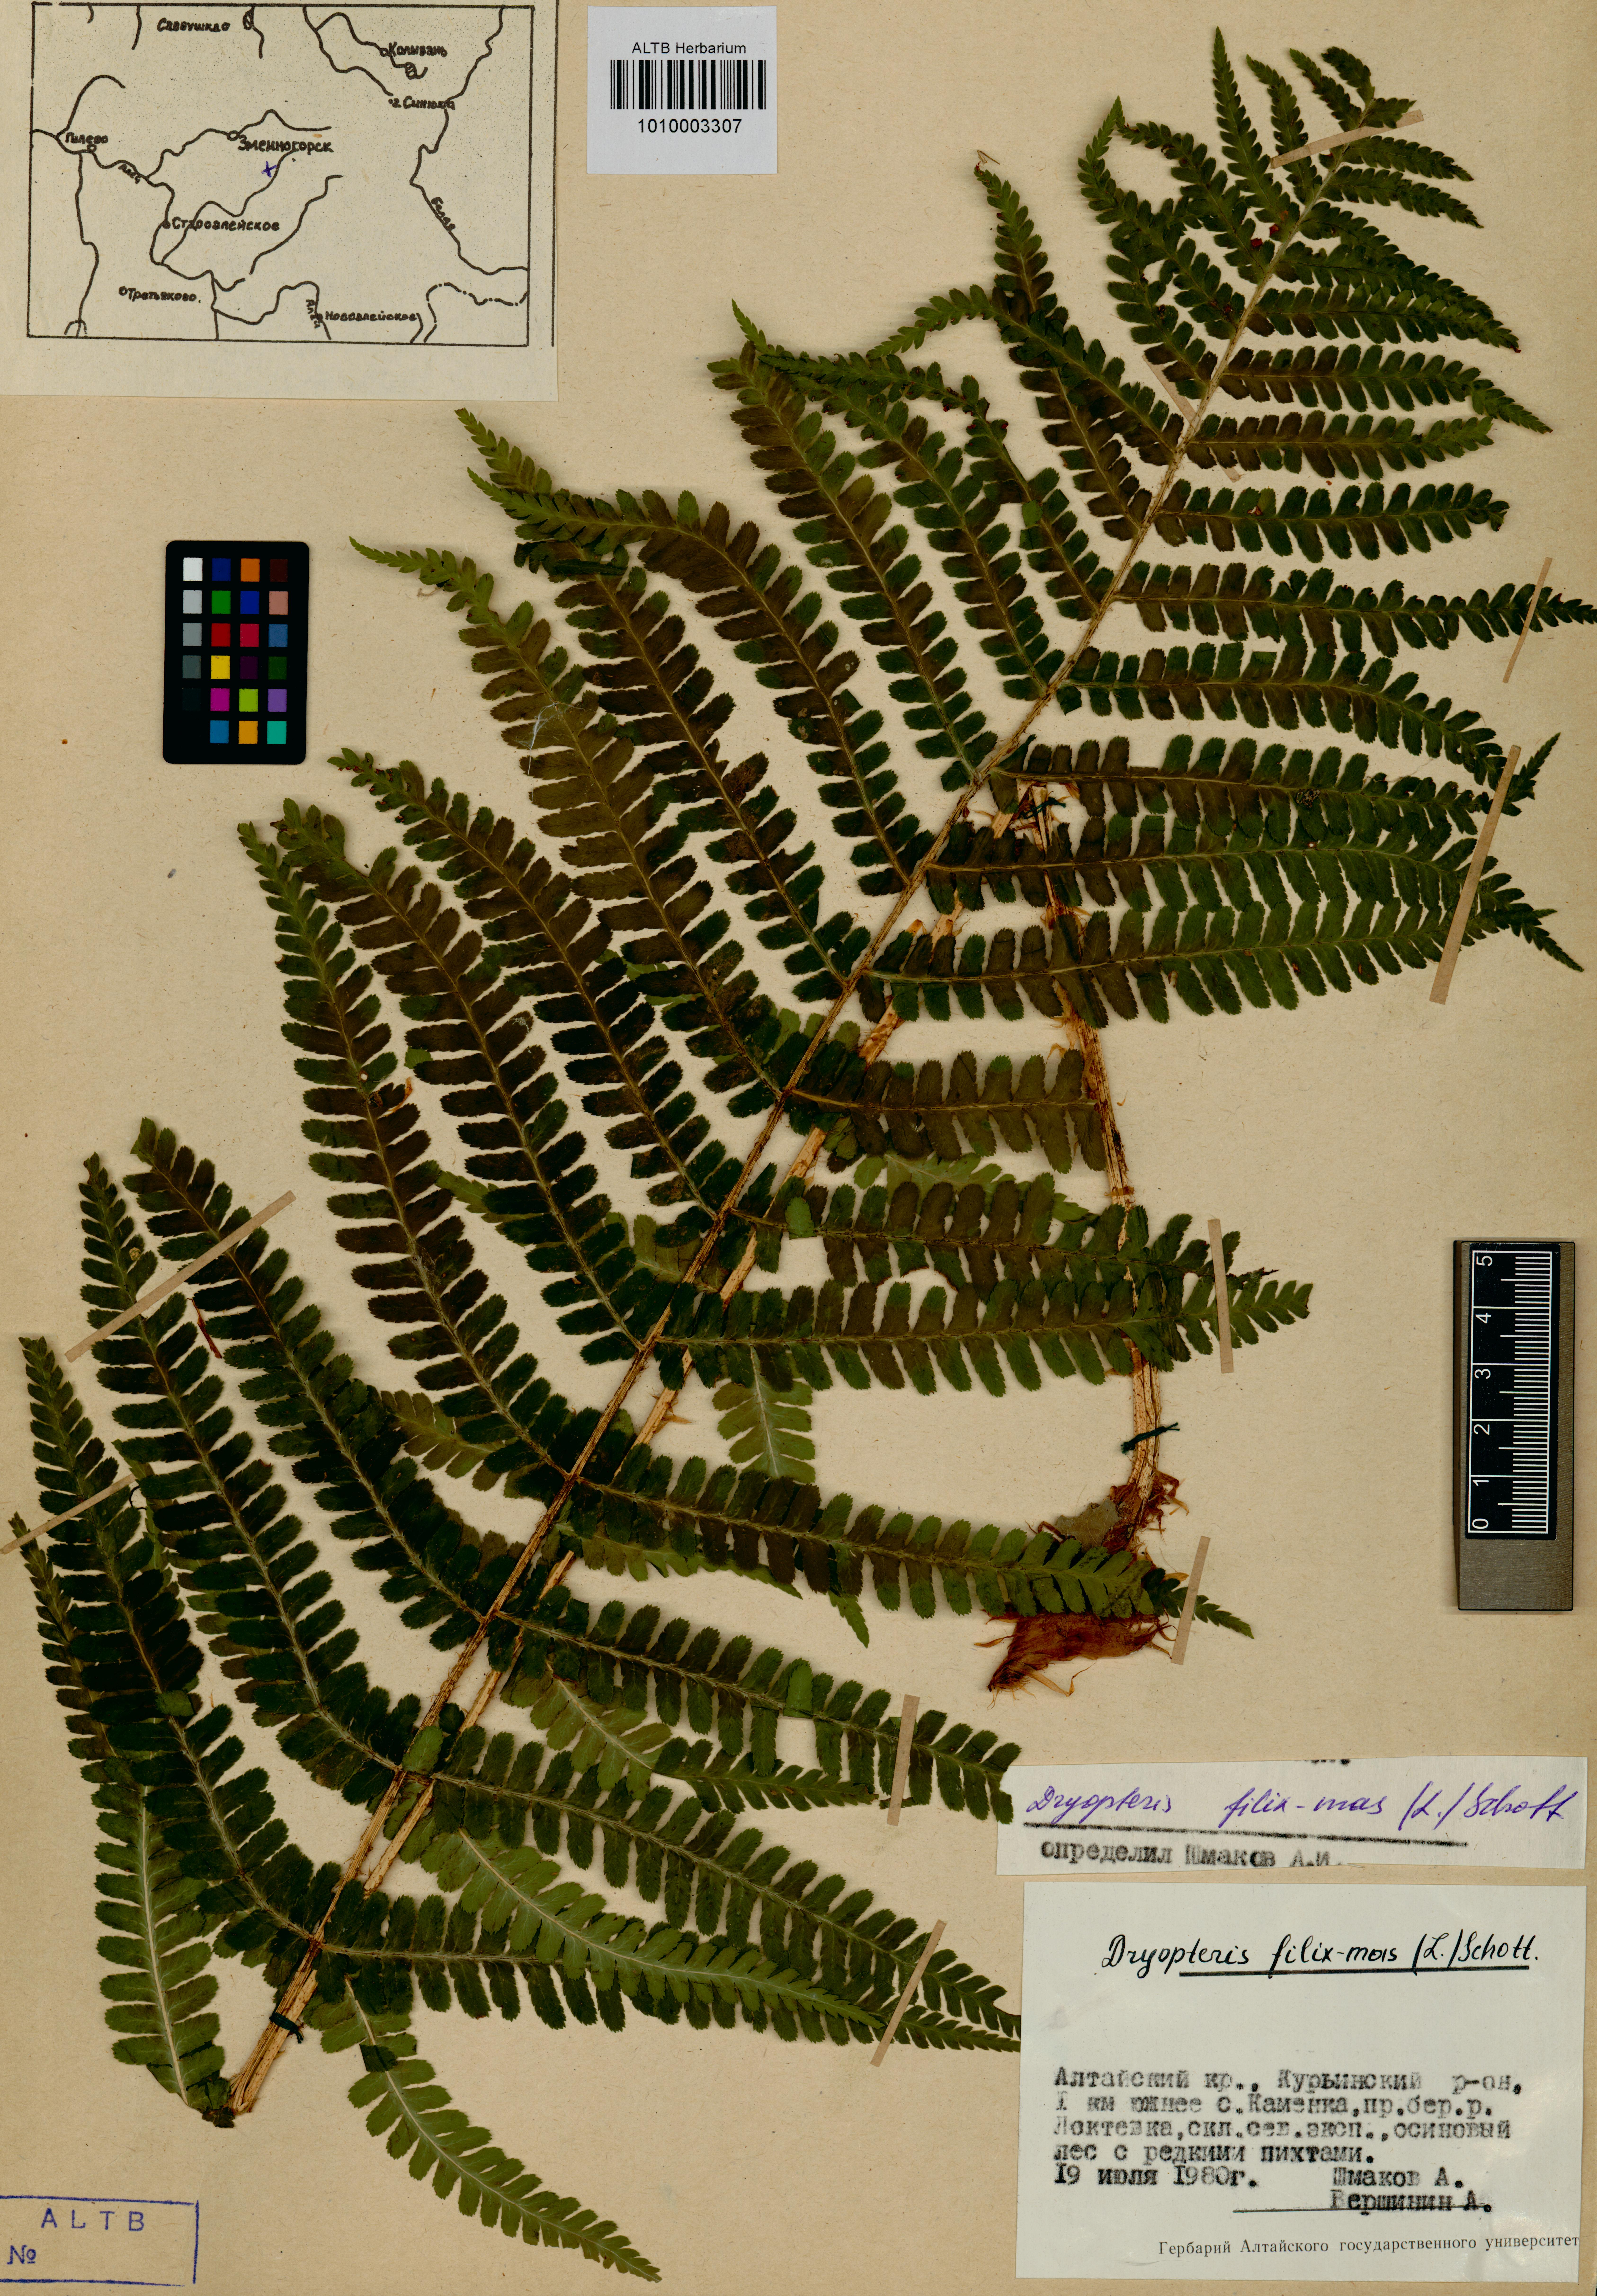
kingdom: Plantae
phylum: Tracheophyta
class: Polypodiopsida
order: Polypodiales
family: Dryopteridaceae
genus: Dryopteris
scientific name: Dryopteris filix-mas
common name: Male fern
